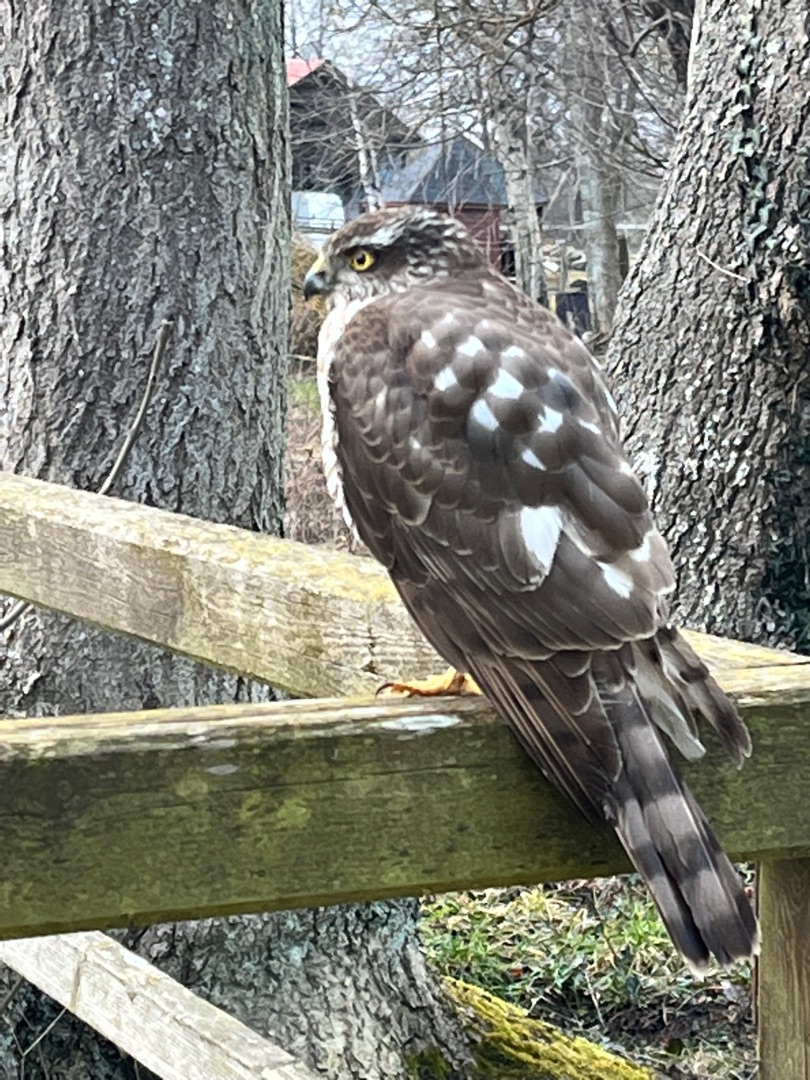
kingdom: Animalia
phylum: Chordata
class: Aves
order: Accipitriformes
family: Accipitridae
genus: Accipiter
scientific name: Accipiter nisus
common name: Spurvehøg
